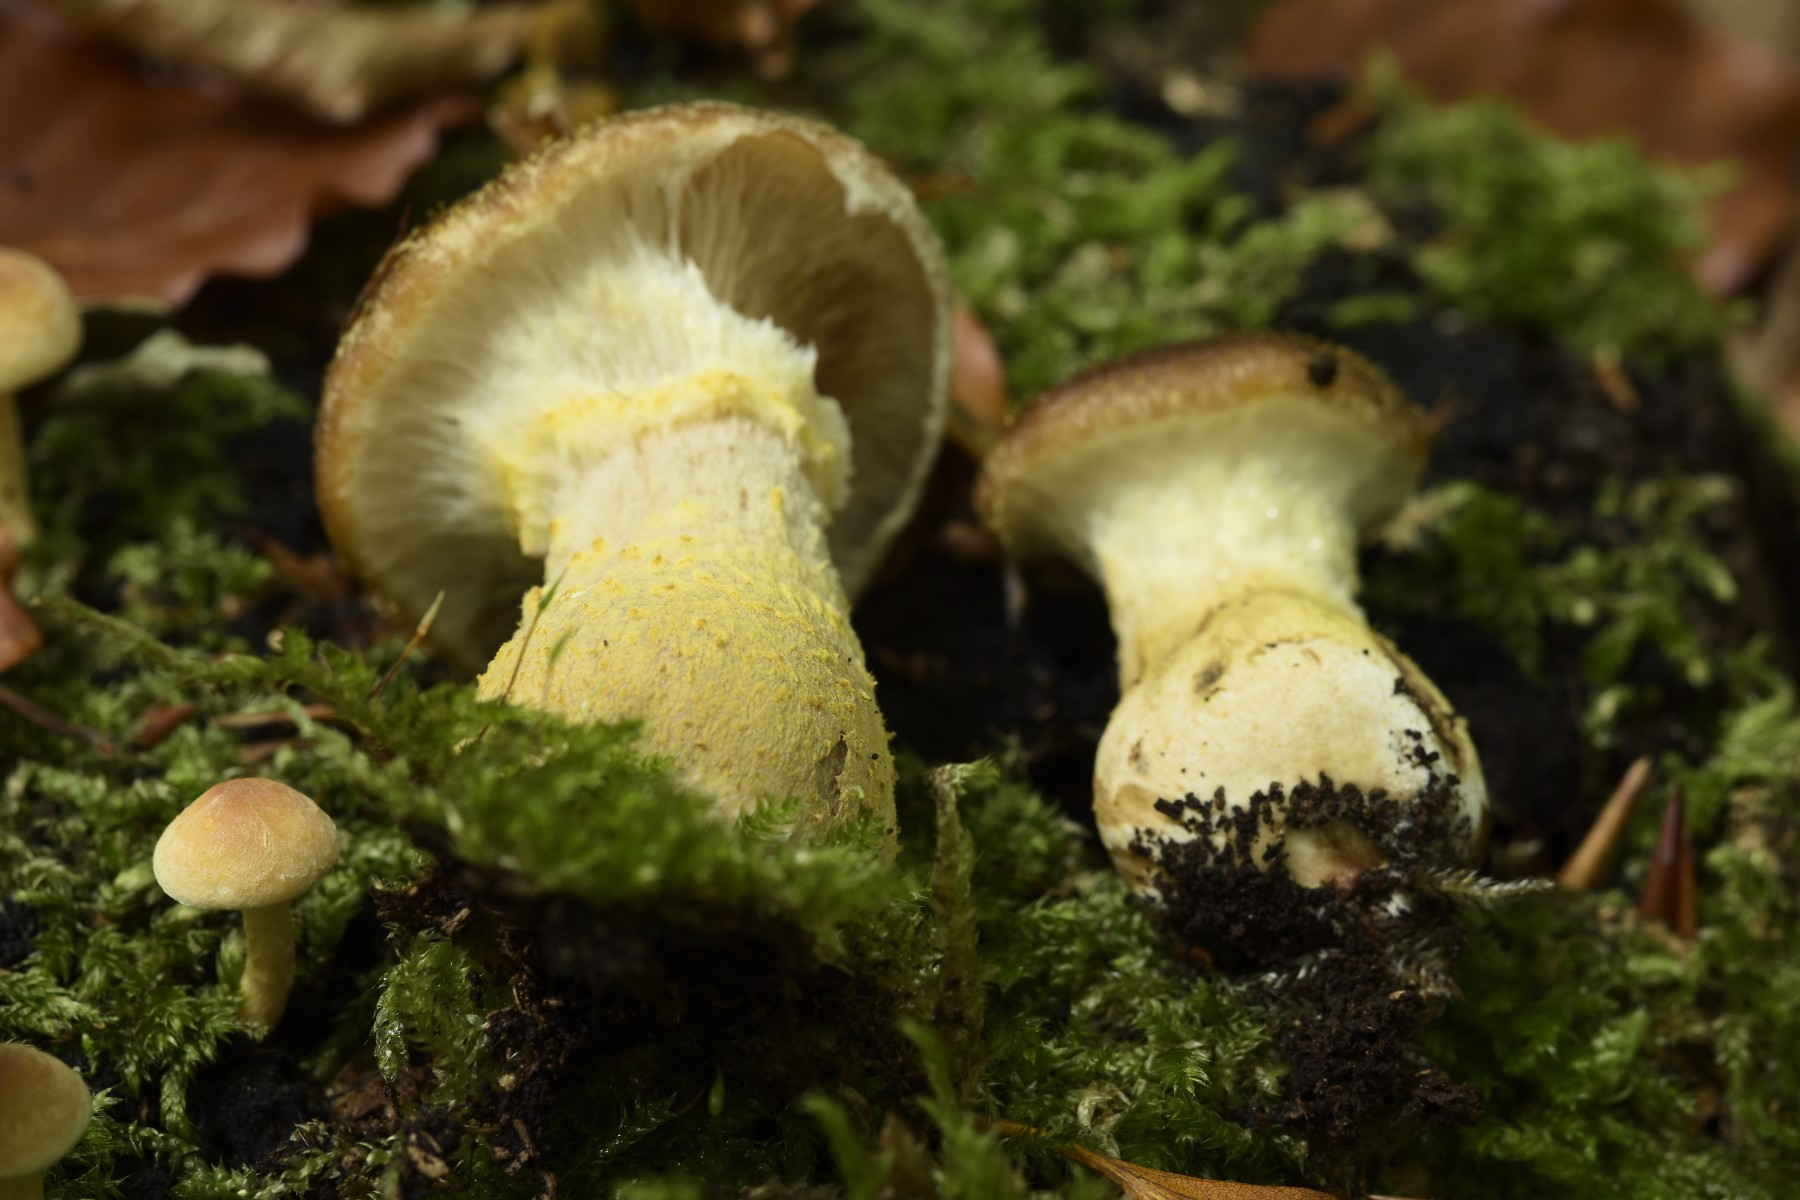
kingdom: Fungi
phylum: Basidiomycota
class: Agaricomycetes
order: Agaricales
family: Physalacriaceae
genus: Armillaria
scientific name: Armillaria lutea
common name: køllestokket honningsvamp
